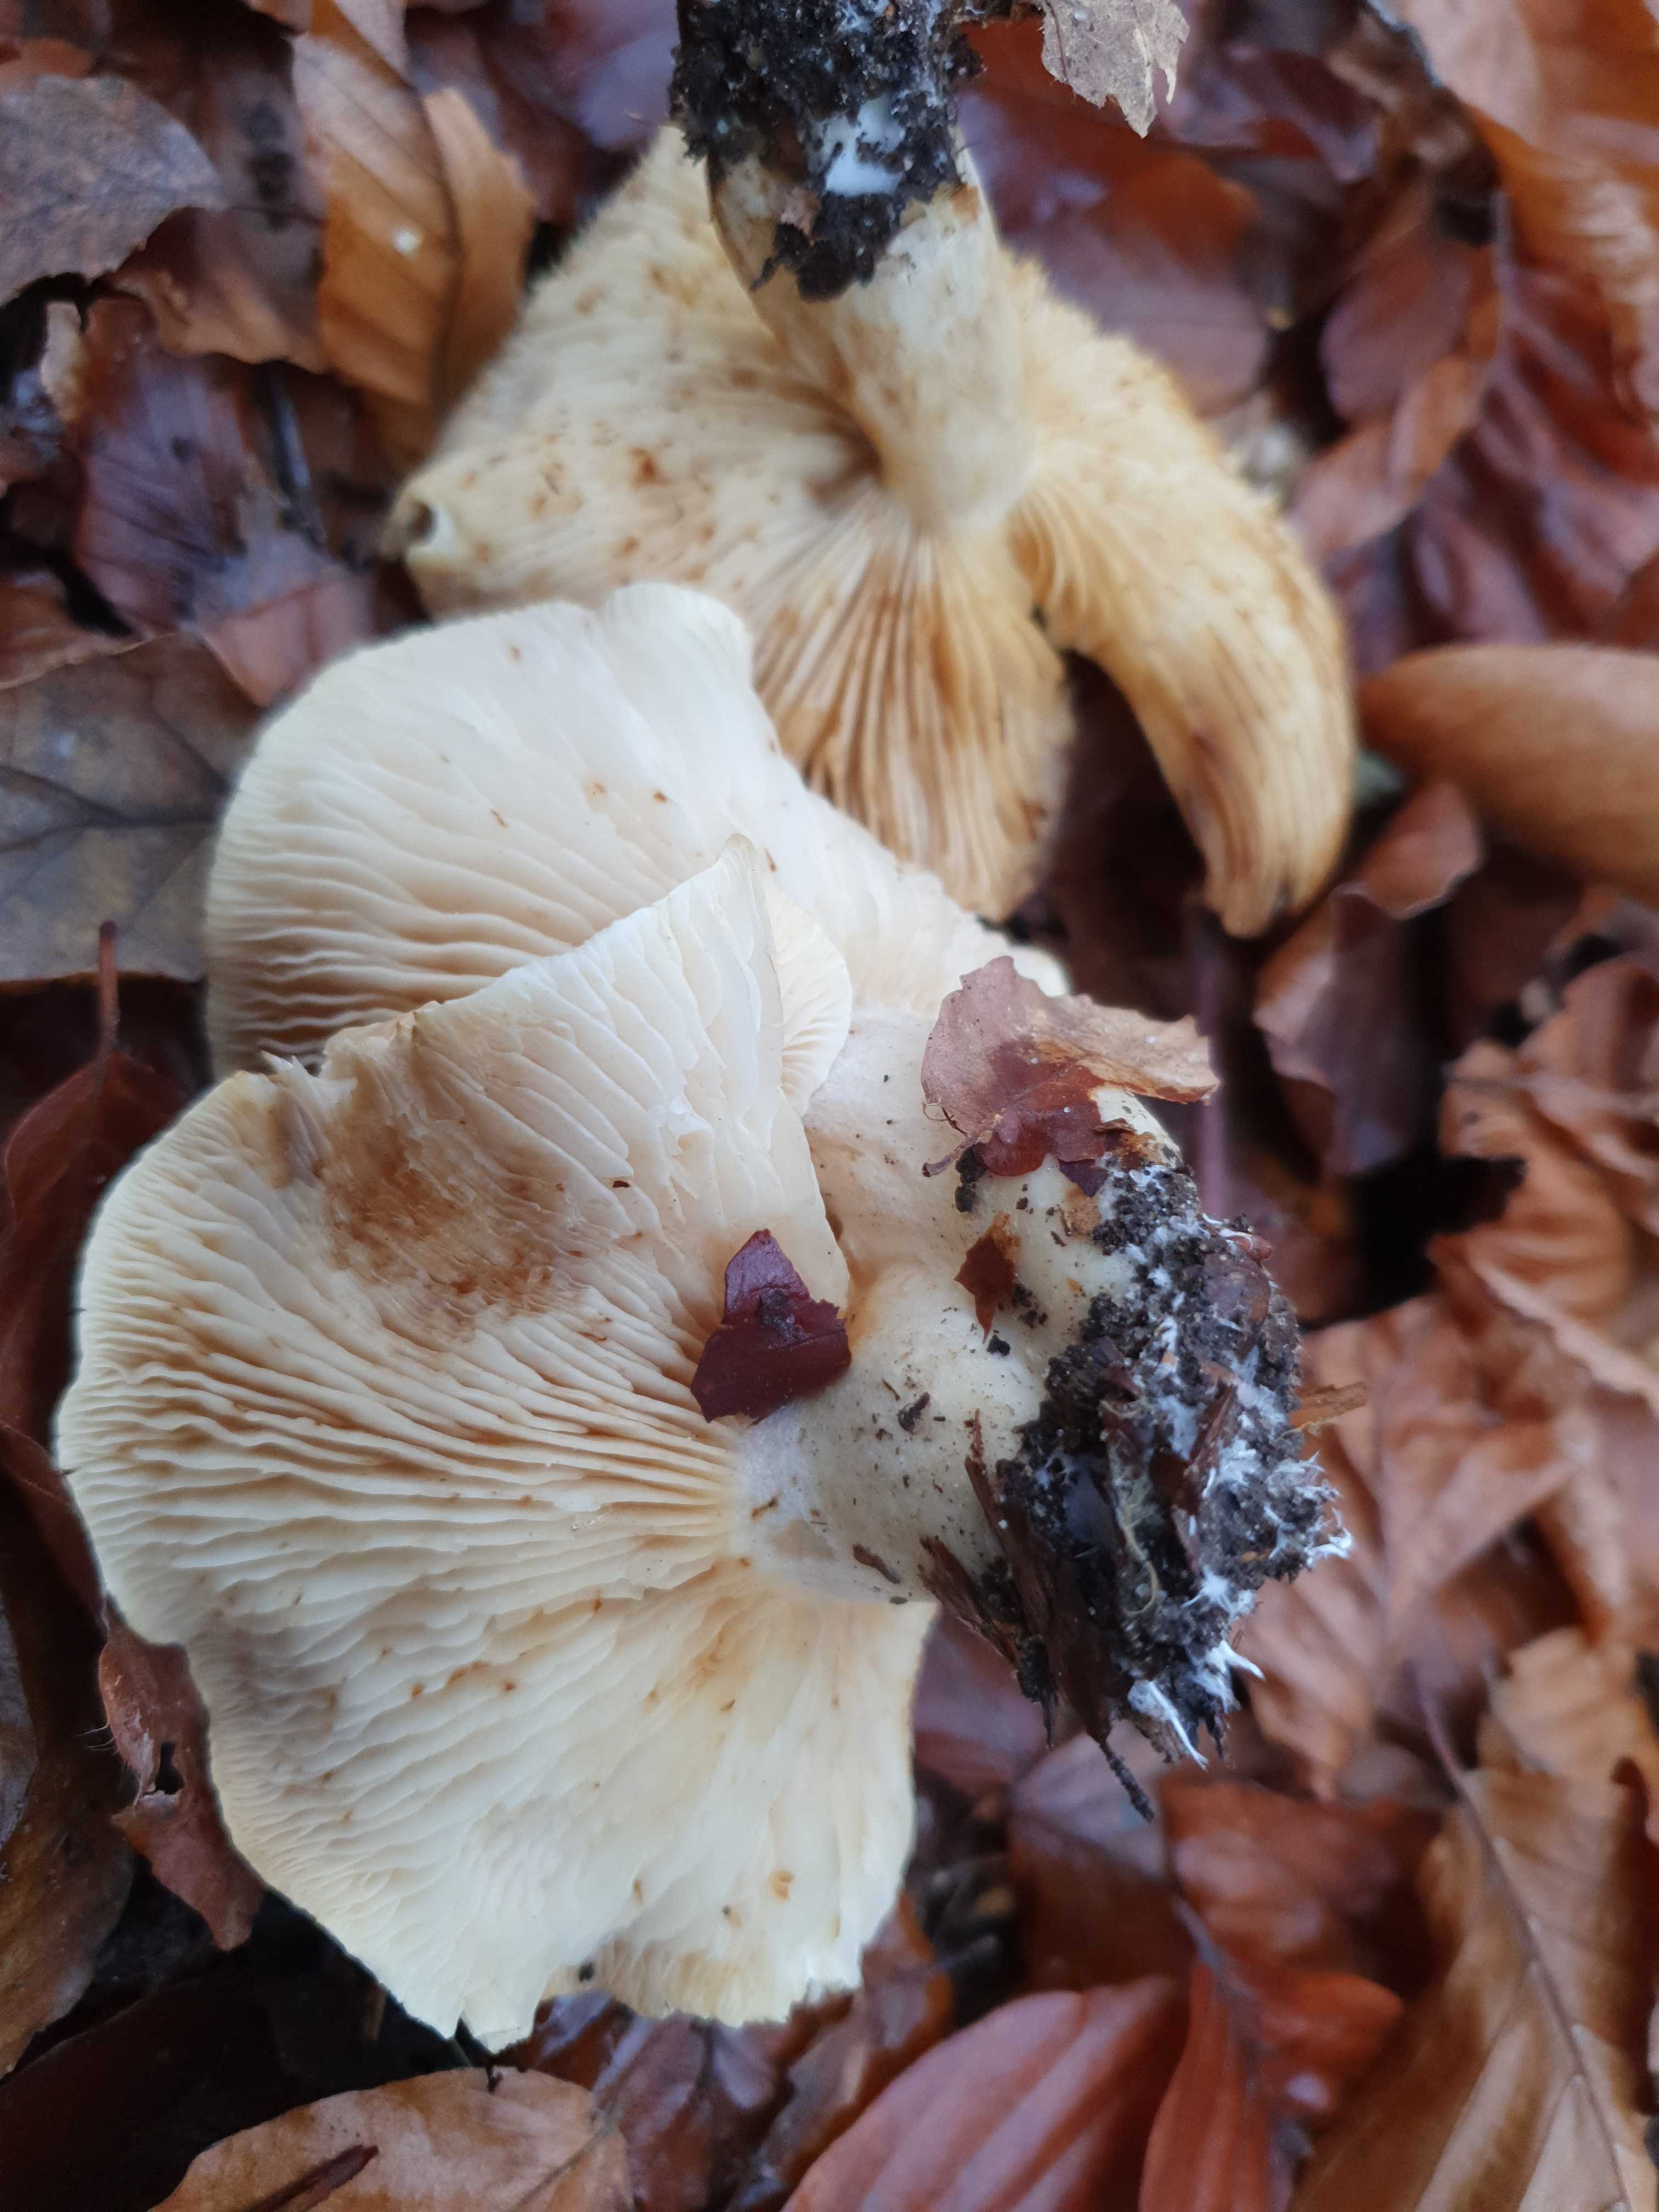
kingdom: Fungi
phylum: Basidiomycota
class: Agaricomycetes
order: Agaricales
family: Tricholomataceae
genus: Tricholoma
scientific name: Tricholoma album
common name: honning-ridderhat
